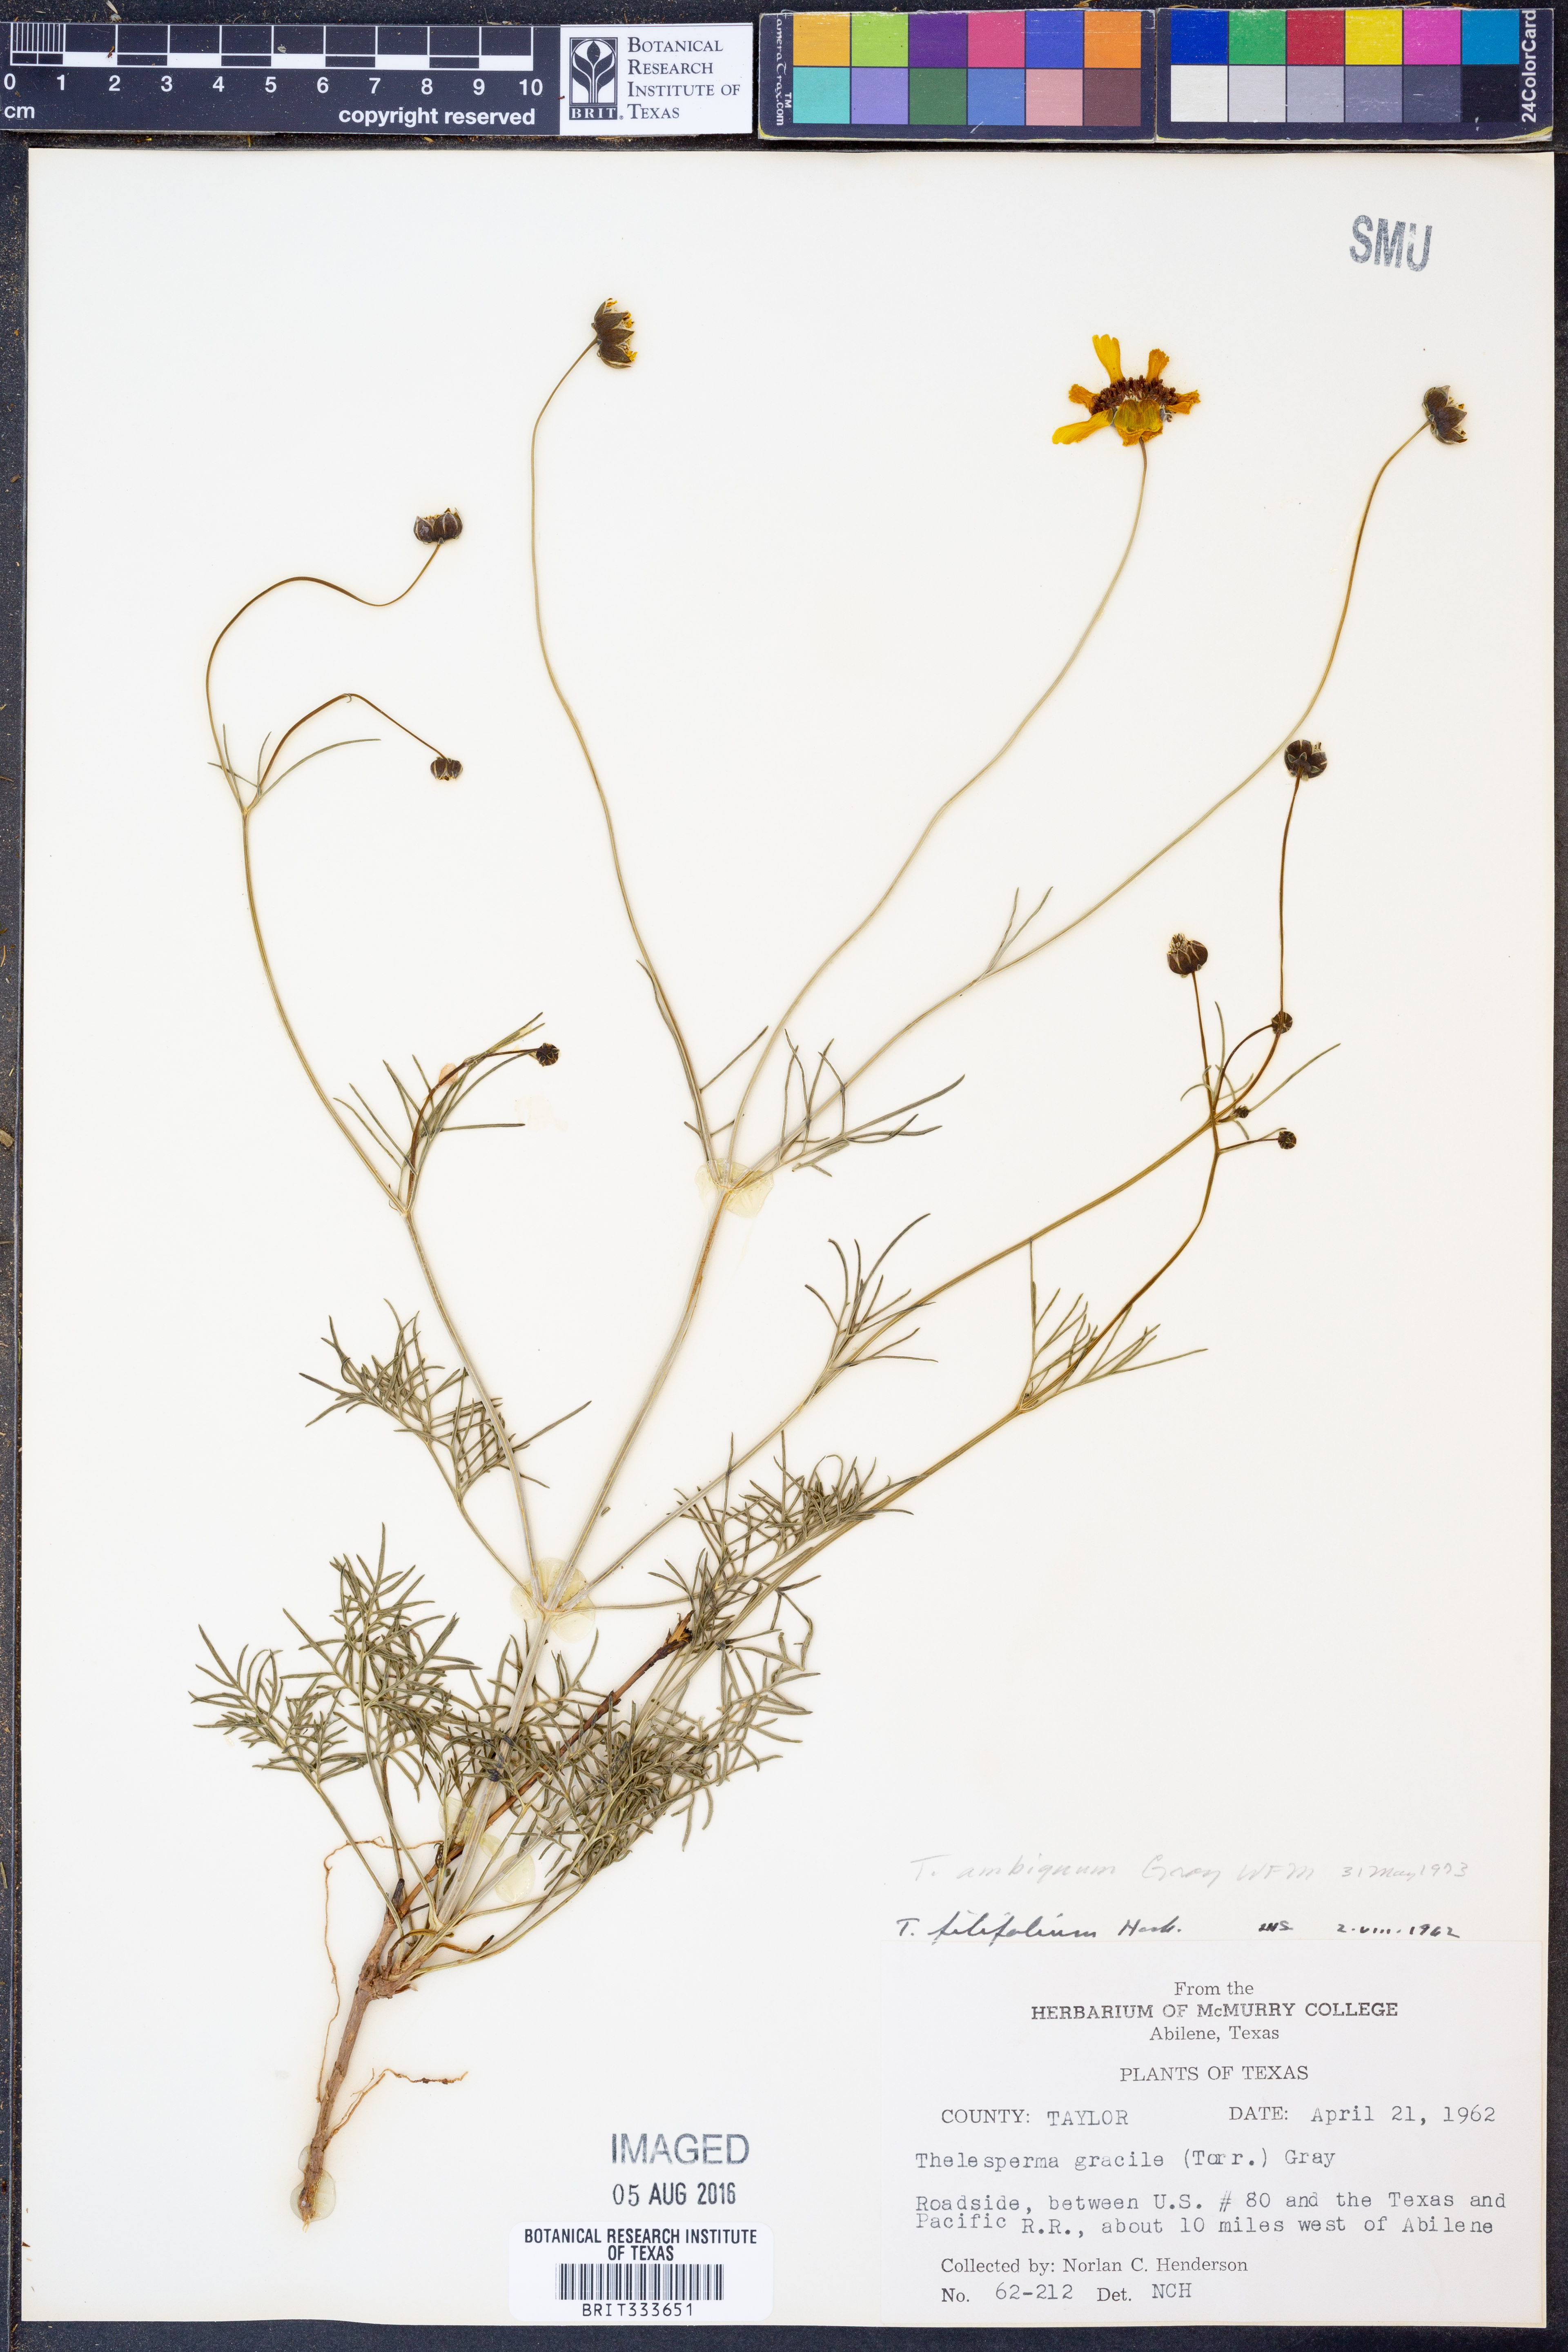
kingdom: Plantae
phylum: Tracheophyta
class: Magnoliopsida
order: Asterales
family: Asteraceae
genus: Thelesperma
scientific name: Thelesperma ambiguum
